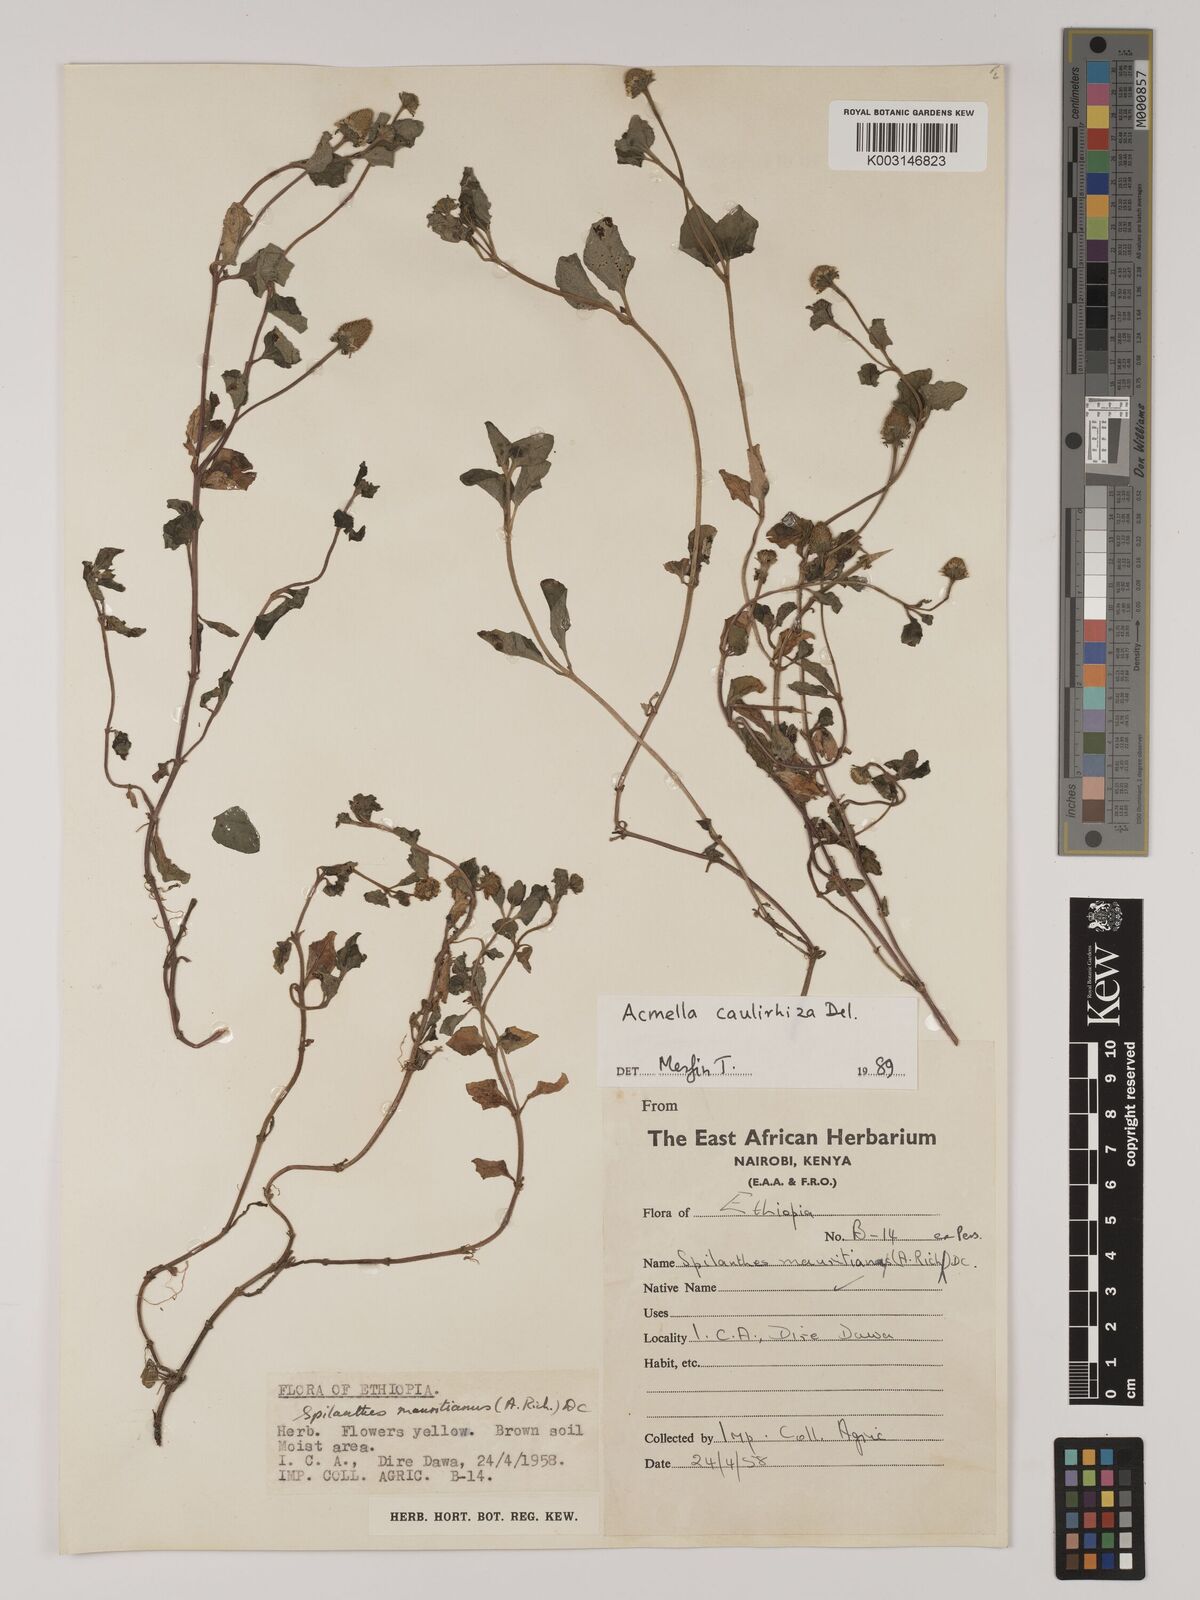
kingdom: Plantae
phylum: Tracheophyta
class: Magnoliopsida
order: Asterales
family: Asteraceae
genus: Blainvillea
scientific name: Blainvillea acmella
